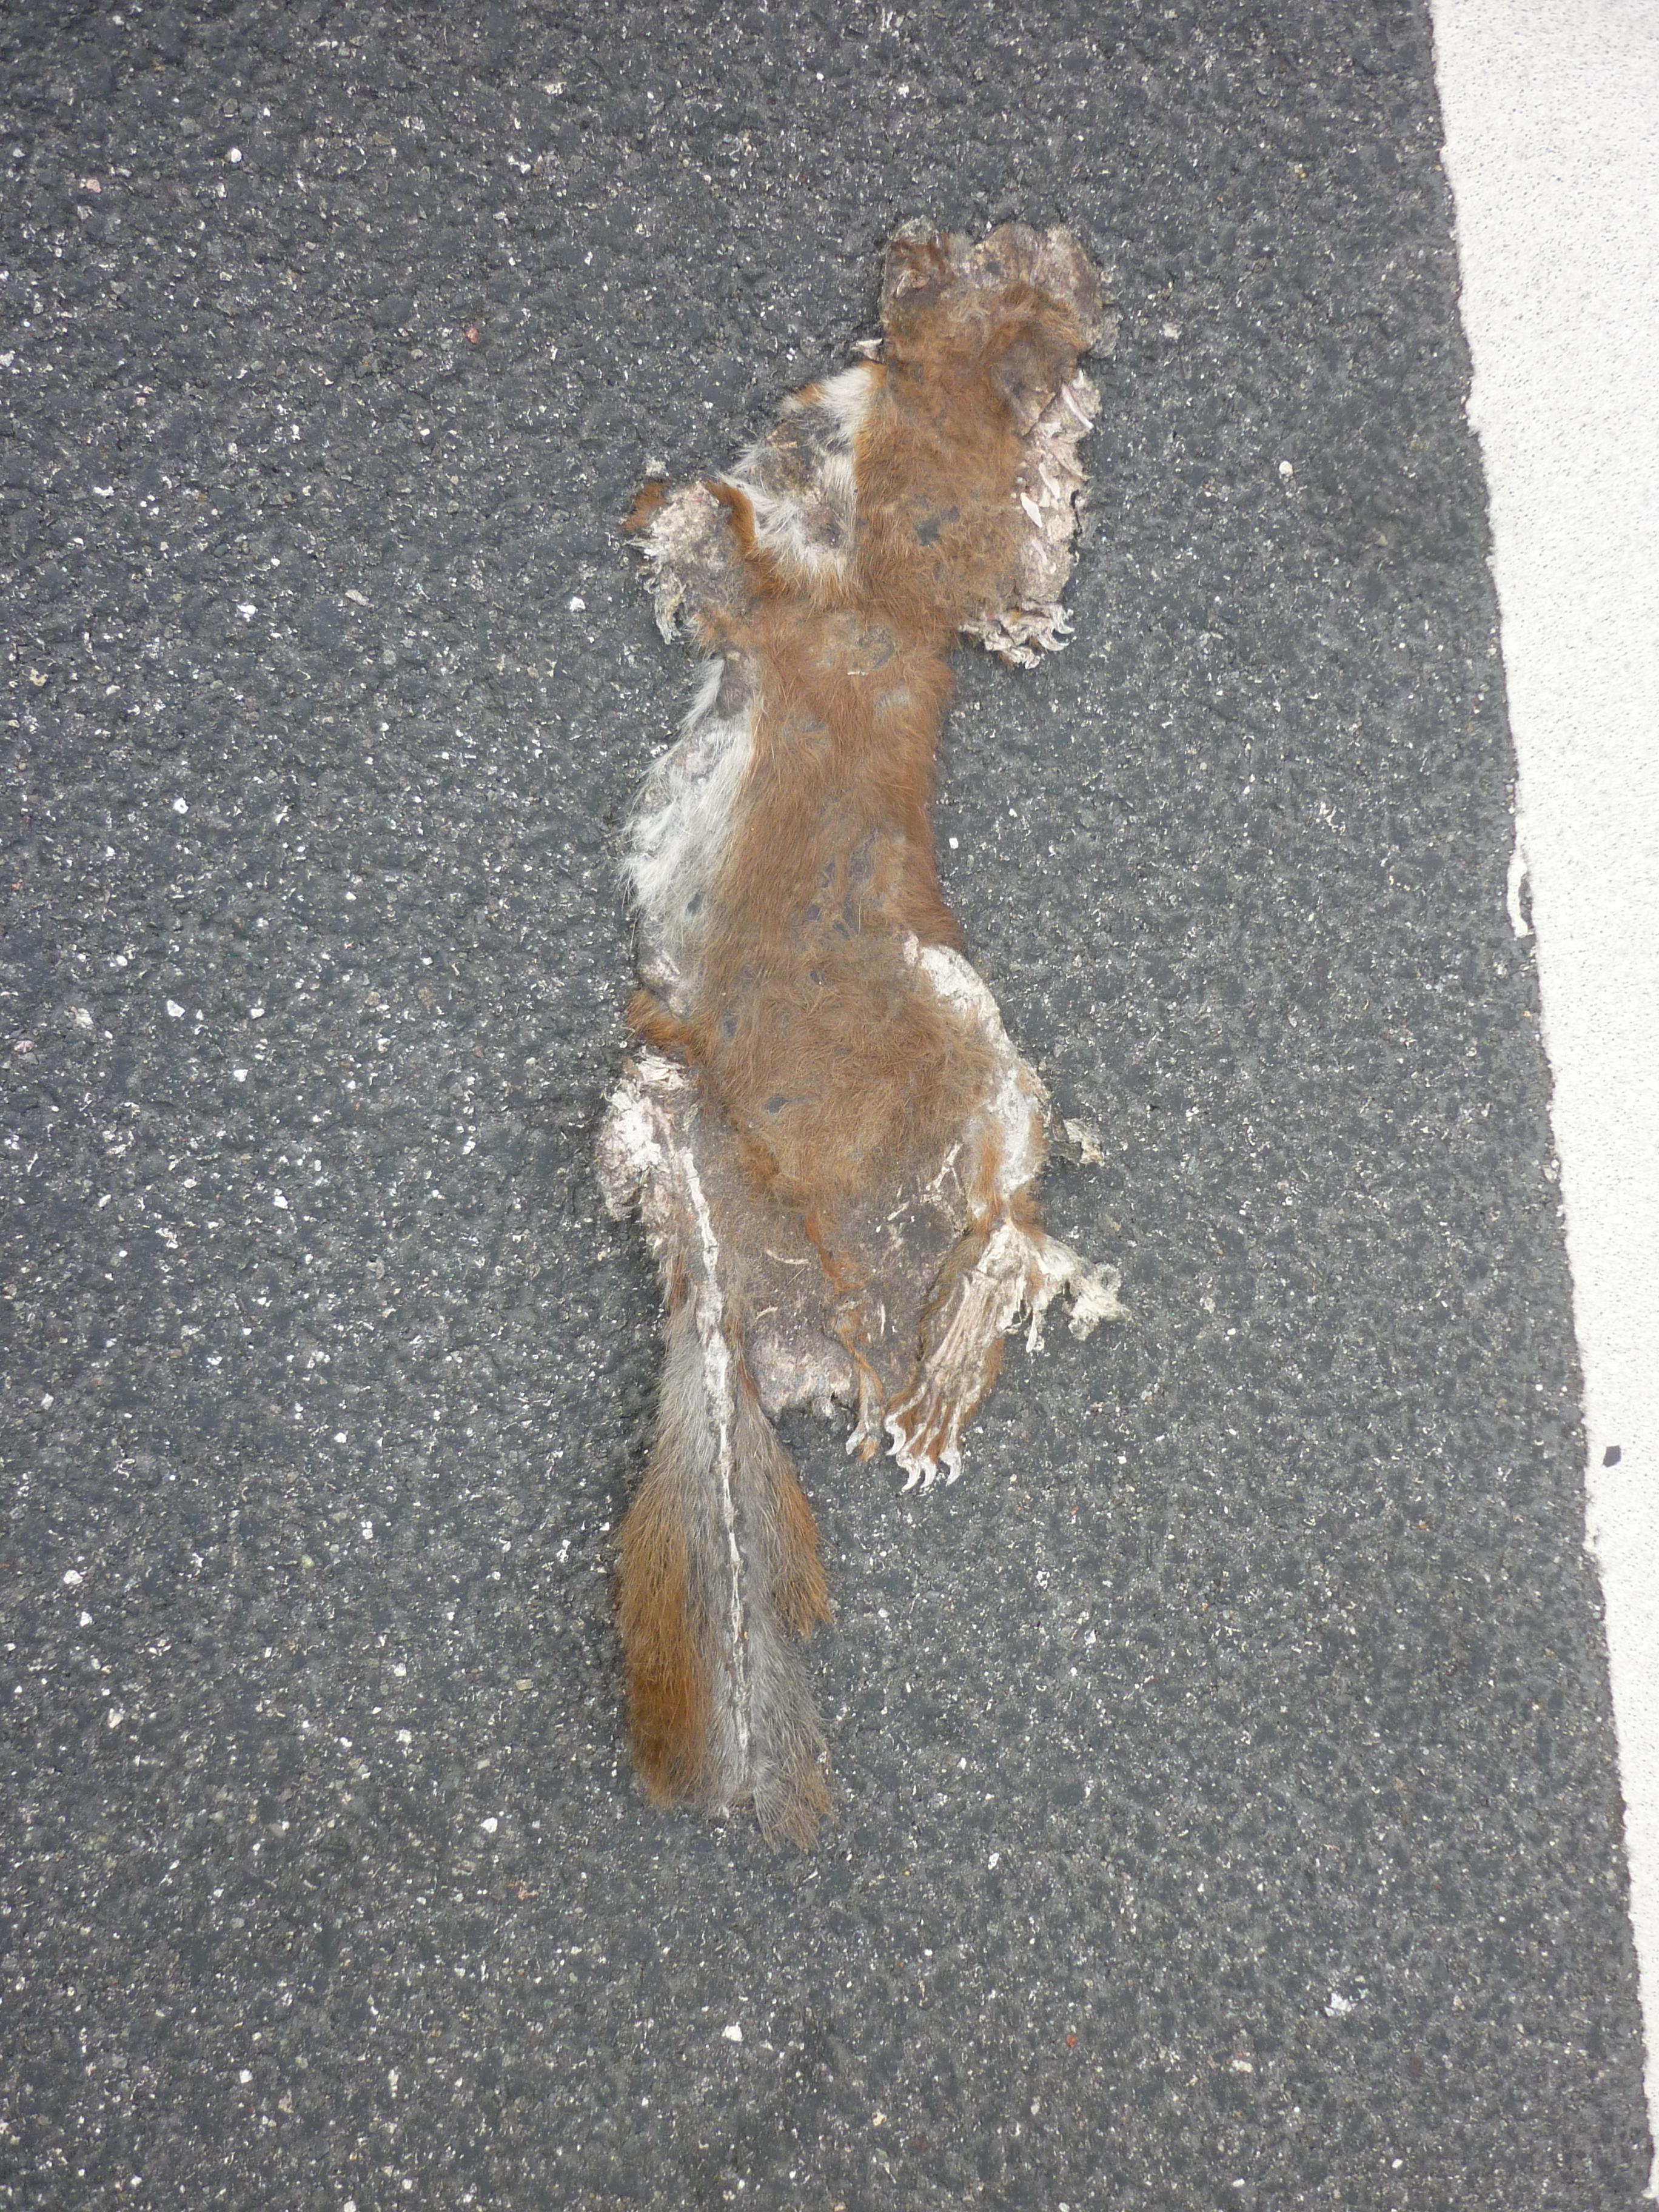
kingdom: Animalia
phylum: Chordata
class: Mammalia
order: Rodentia
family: Sciuridae
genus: Sciurus
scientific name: Sciurus vulgaris
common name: Eurasian red squirrel
